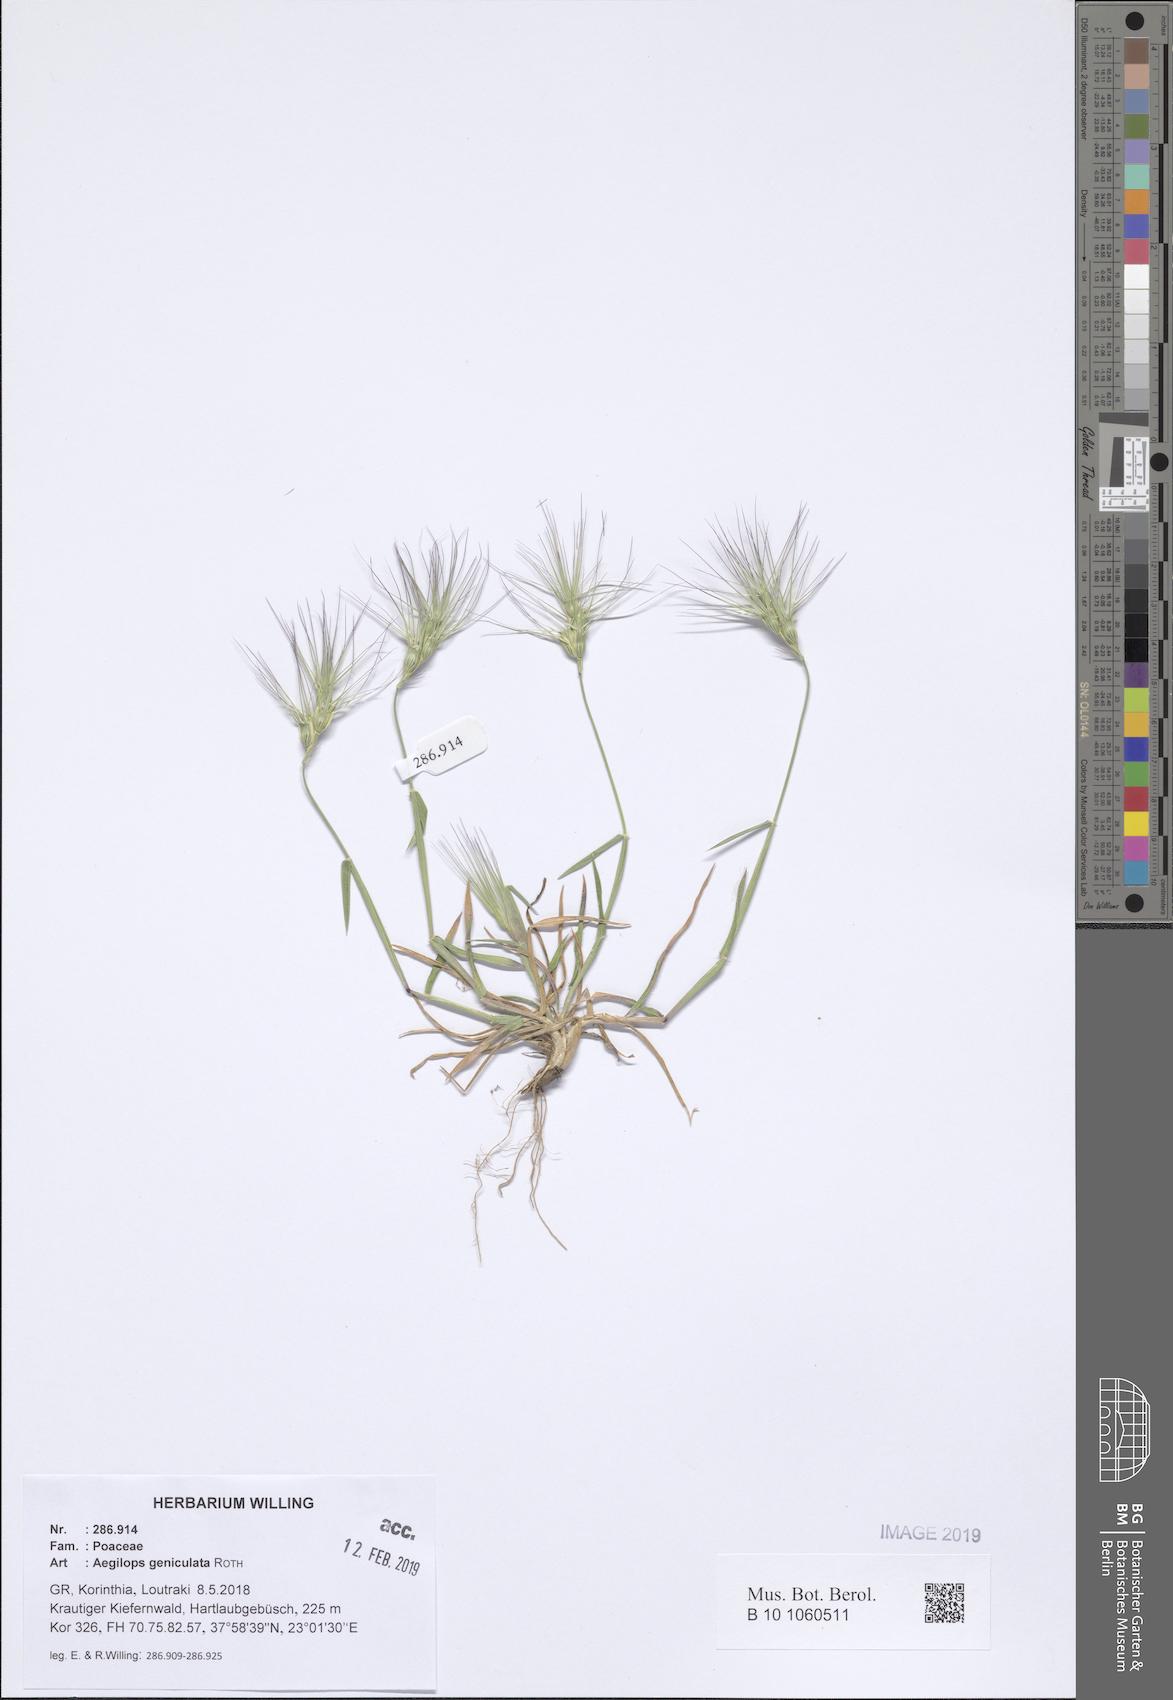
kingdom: Plantae
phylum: Tracheophyta
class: Liliopsida
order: Poales
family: Poaceae
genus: Aegilops
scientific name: Aegilops geniculata
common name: Ovate goat grass
